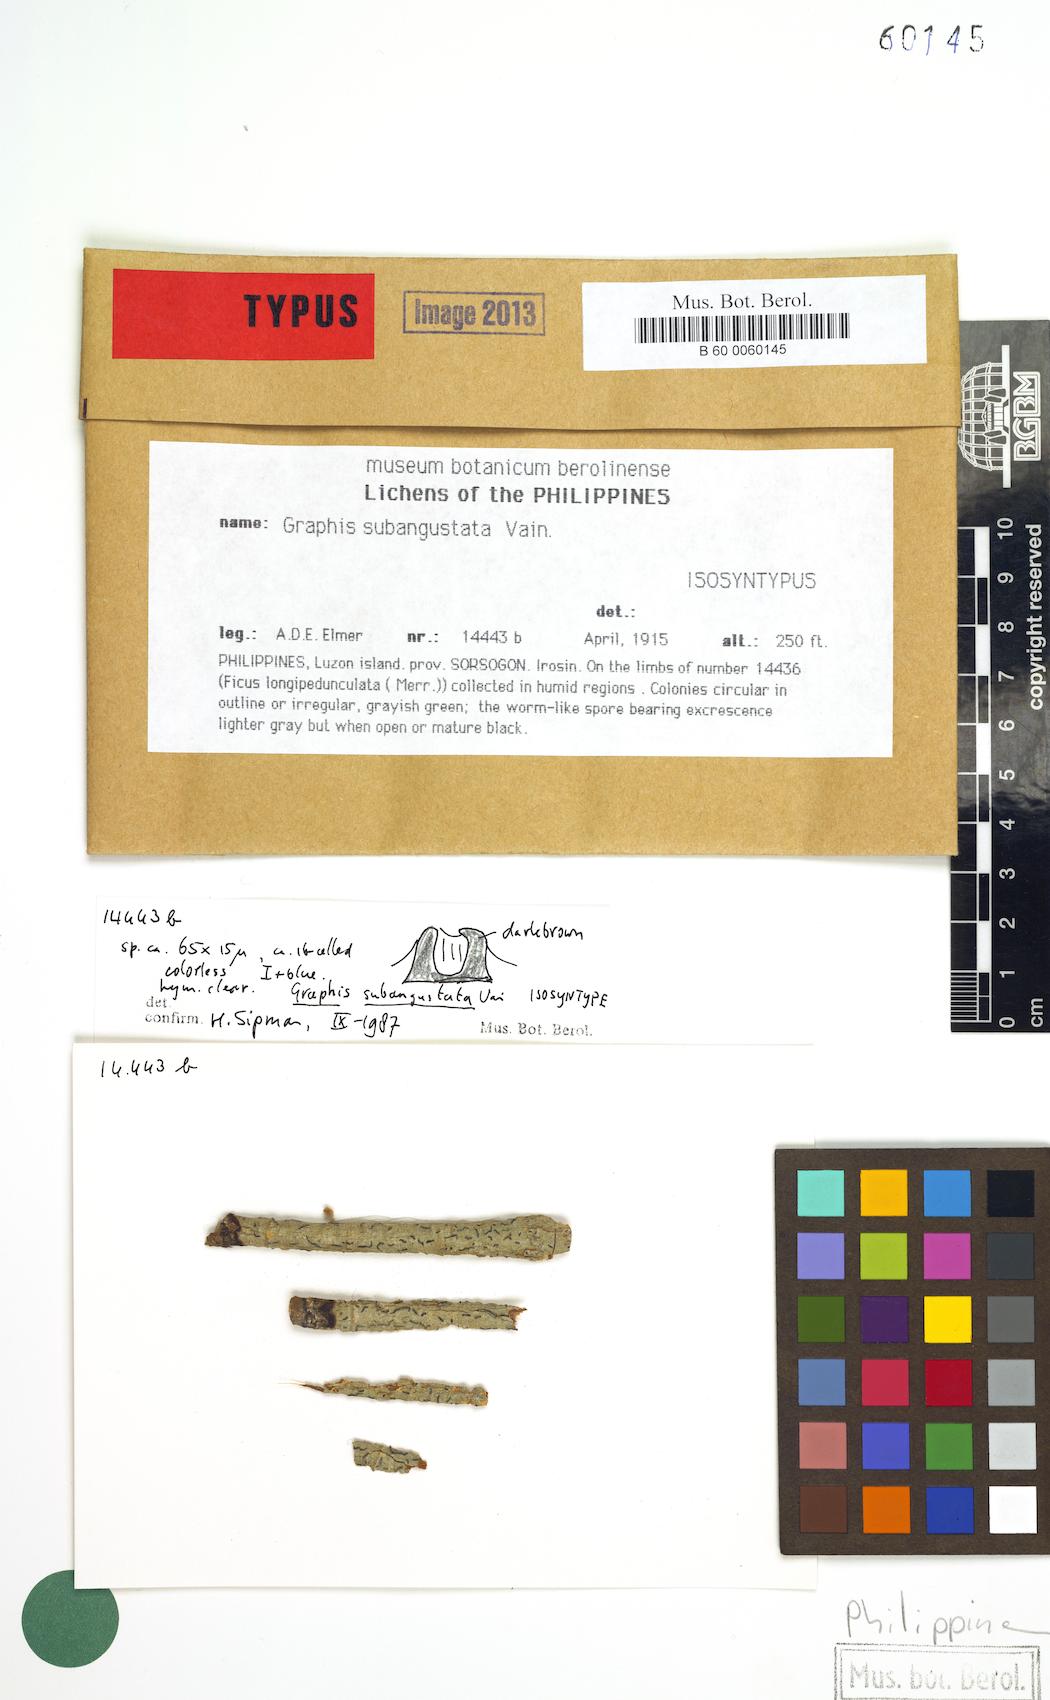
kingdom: Fungi
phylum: Ascomycota
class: Lecanoromycetes
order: Ostropales
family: Graphidaceae
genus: Graphis
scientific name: Graphis
